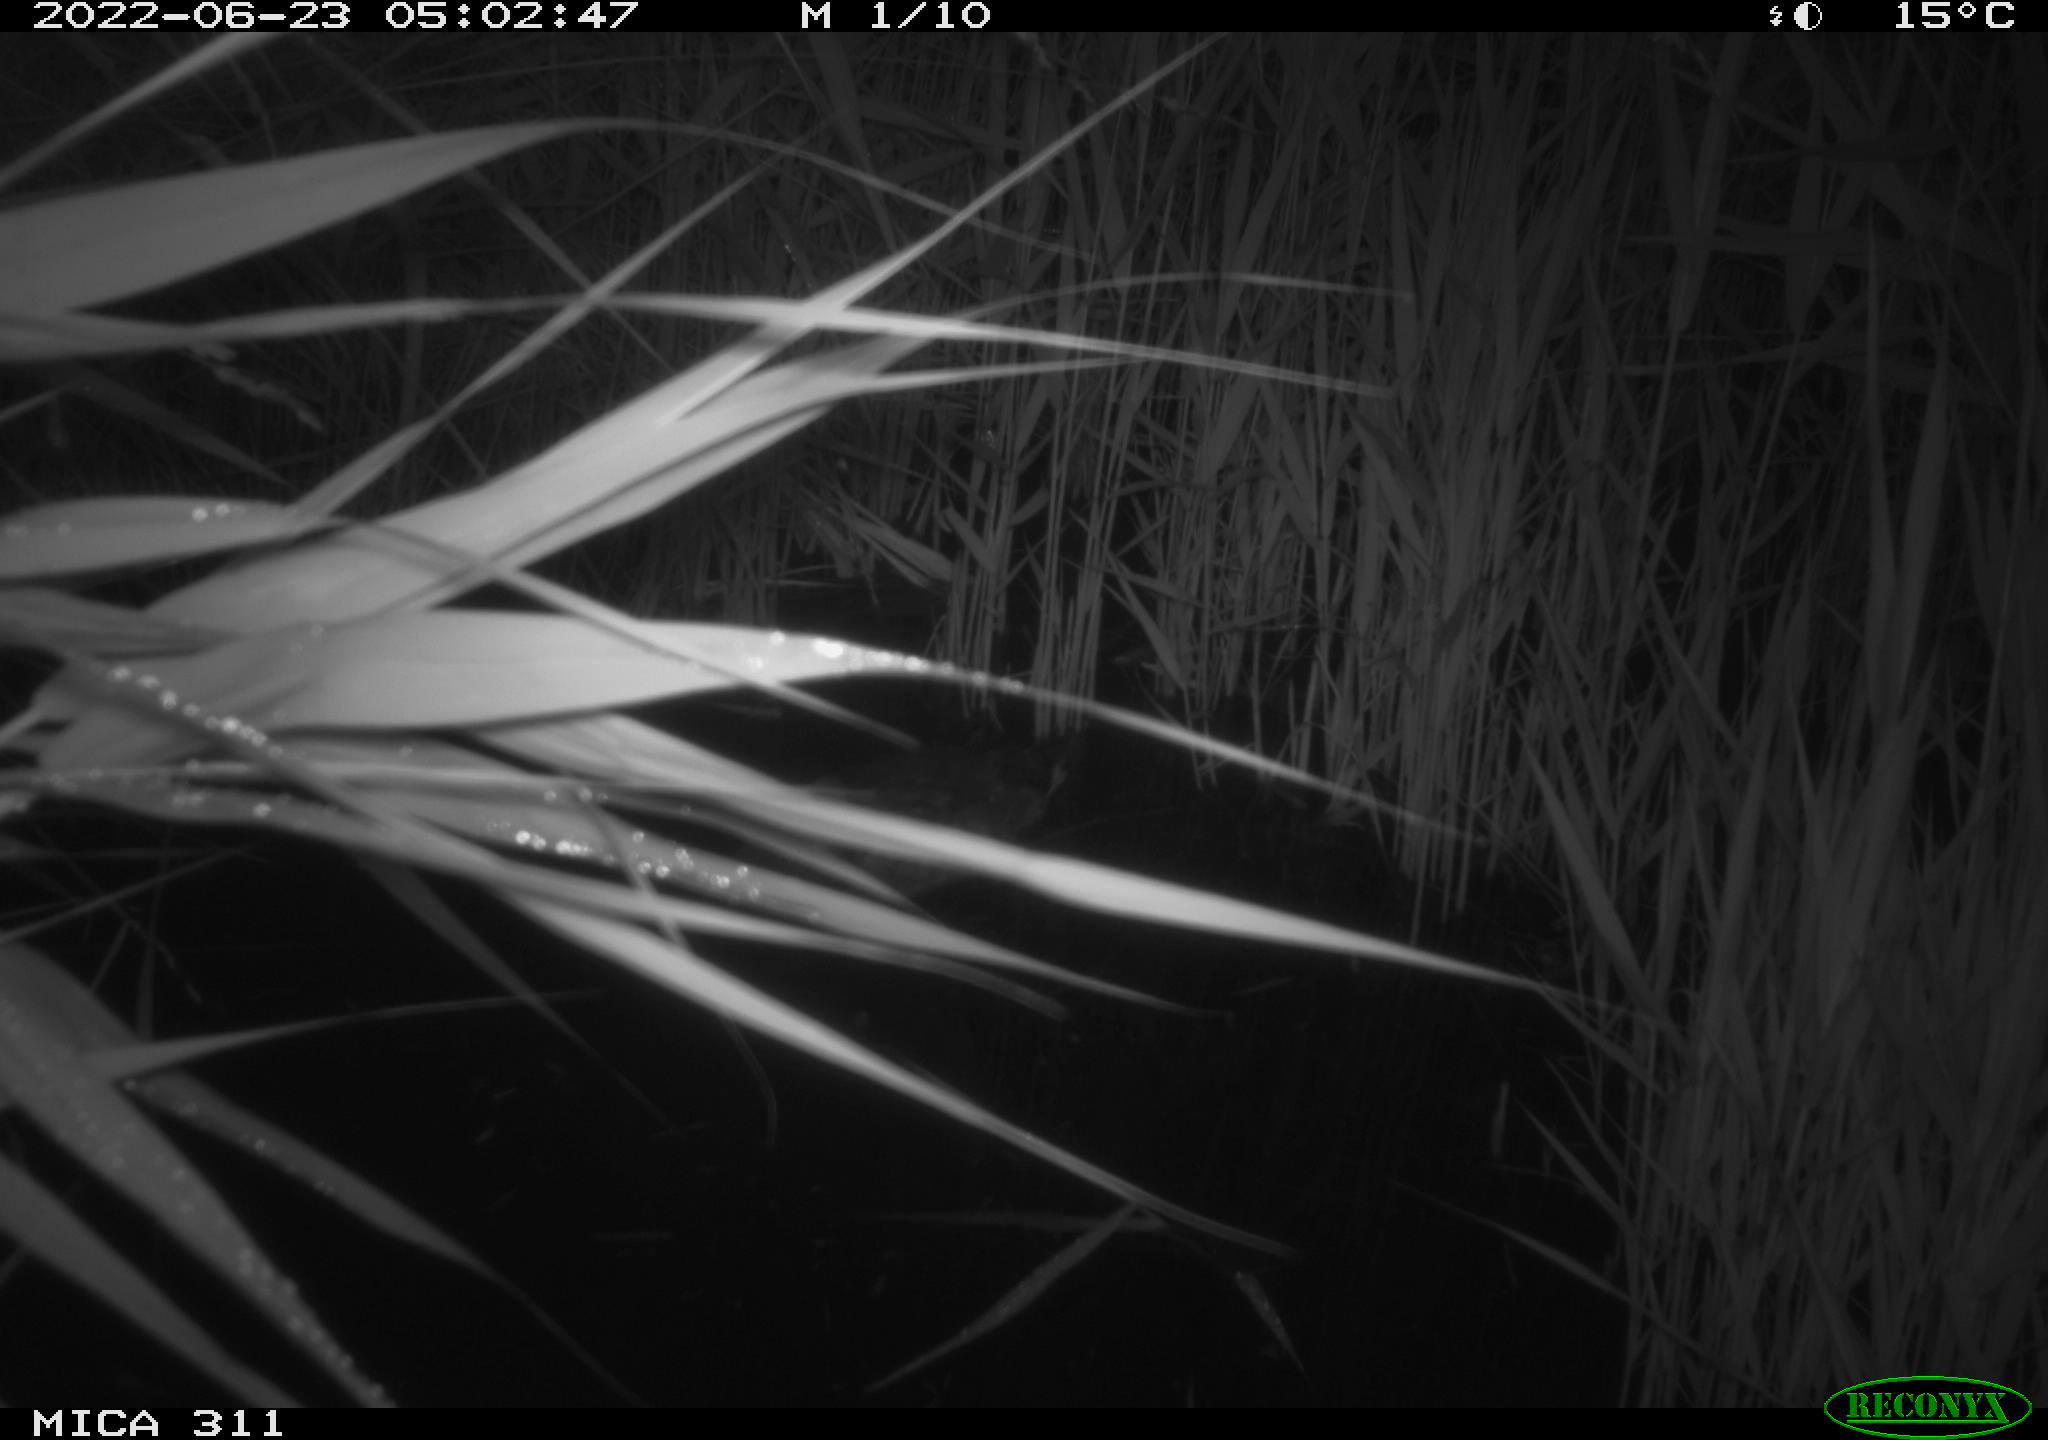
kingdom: Animalia
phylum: Chordata
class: Aves
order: Anseriformes
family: Anatidae
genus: Anas
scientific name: Anas platyrhynchos
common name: Mallard
